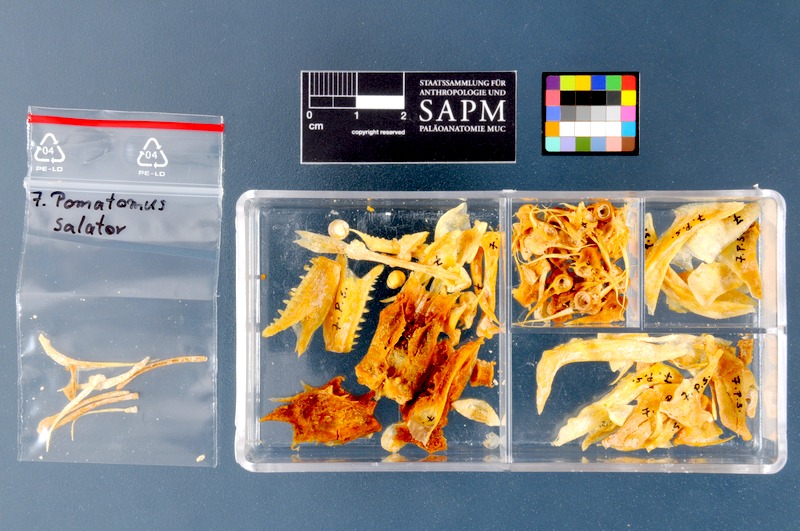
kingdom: Animalia
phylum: Chordata
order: Perciformes
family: Pomatomidae
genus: Pomatomus
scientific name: Pomatomus saltatrix
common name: Bluefish
